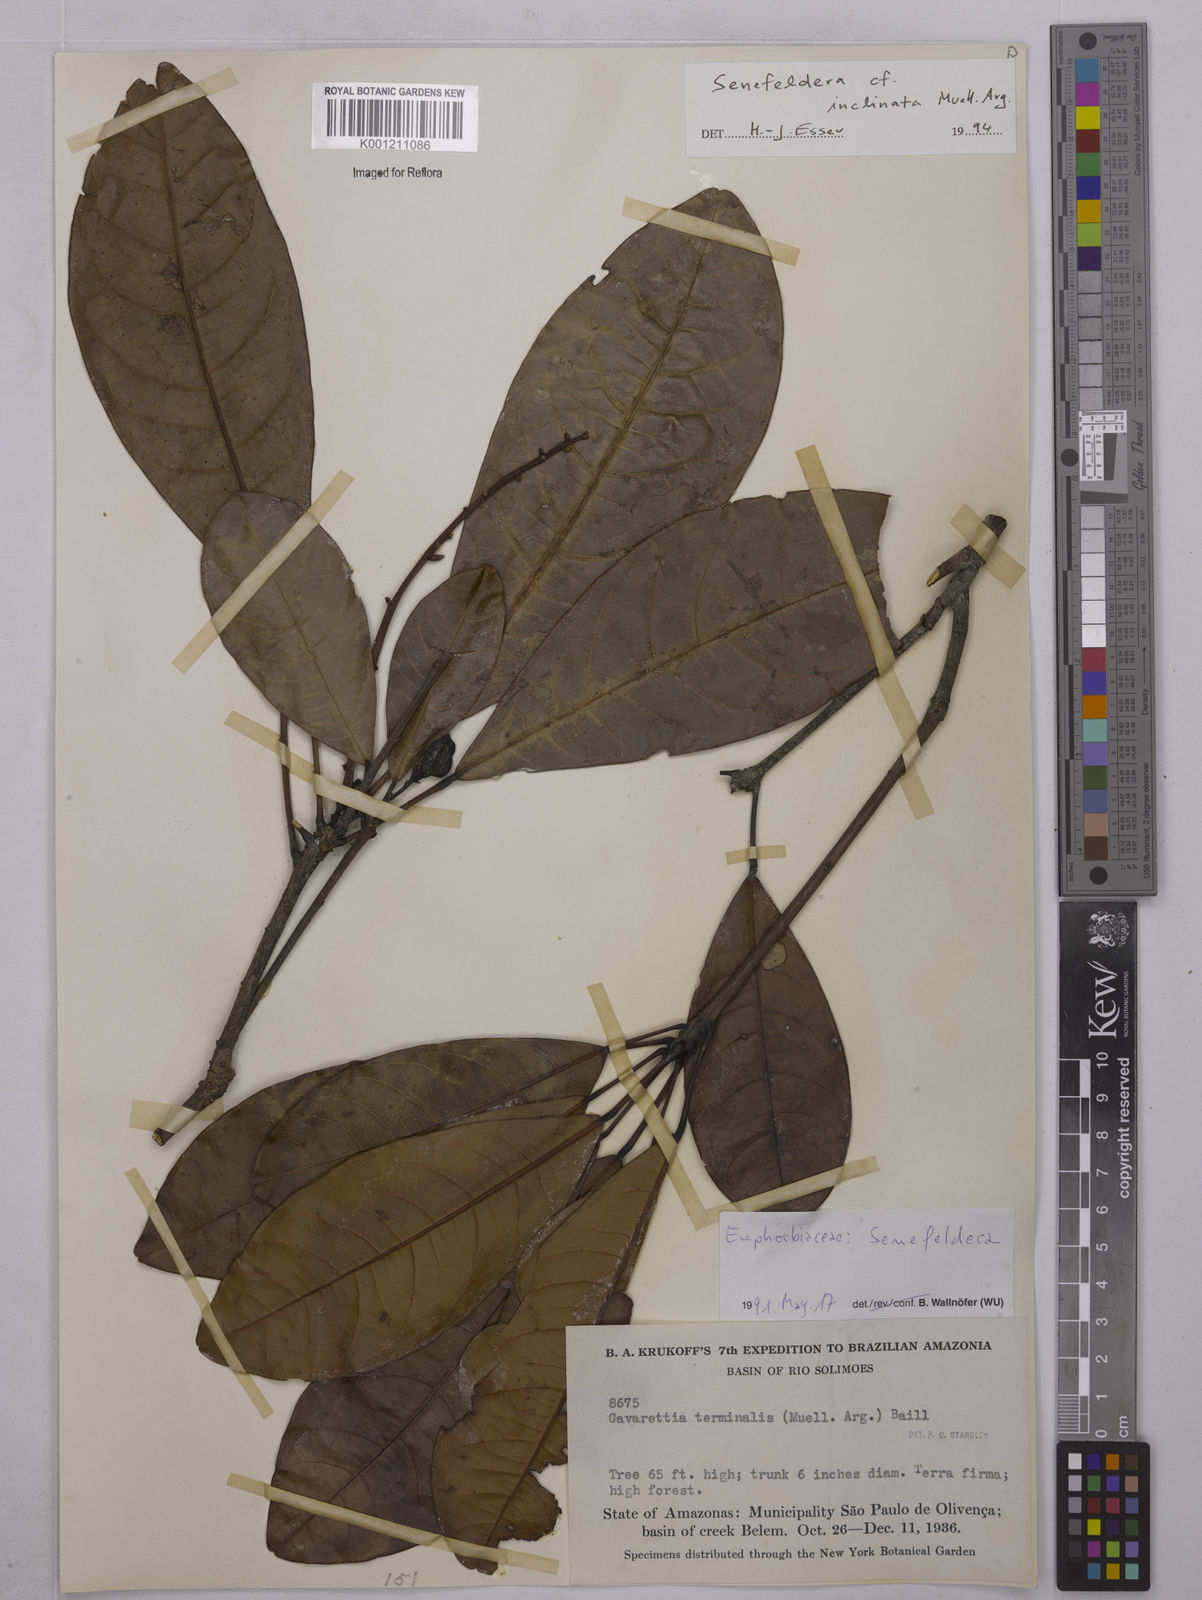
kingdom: Plantae
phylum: Tracheophyta
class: Magnoliopsida
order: Malpighiales
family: Euphorbiaceae
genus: Pseudosenefeldera
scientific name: Pseudosenefeldera
